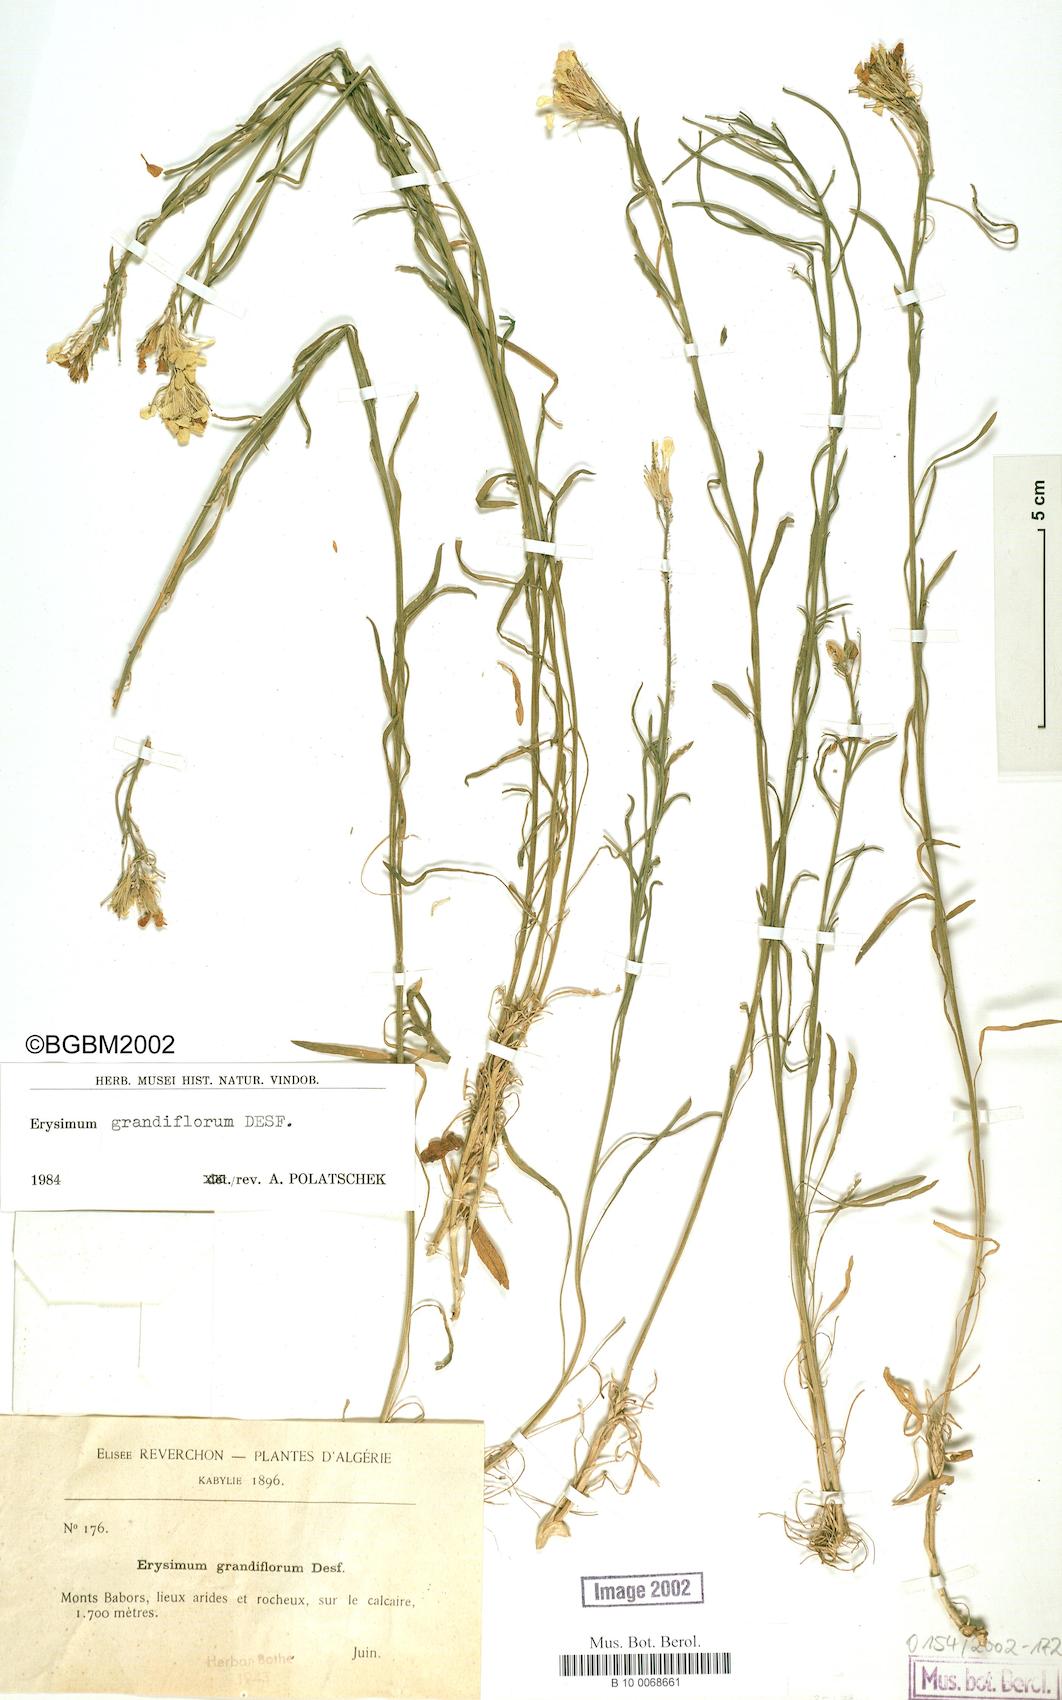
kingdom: Plantae
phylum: Tracheophyta
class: Magnoliopsida
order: Brassicales
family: Brassicaceae
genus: Erysimum
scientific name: Erysimum nervosum
